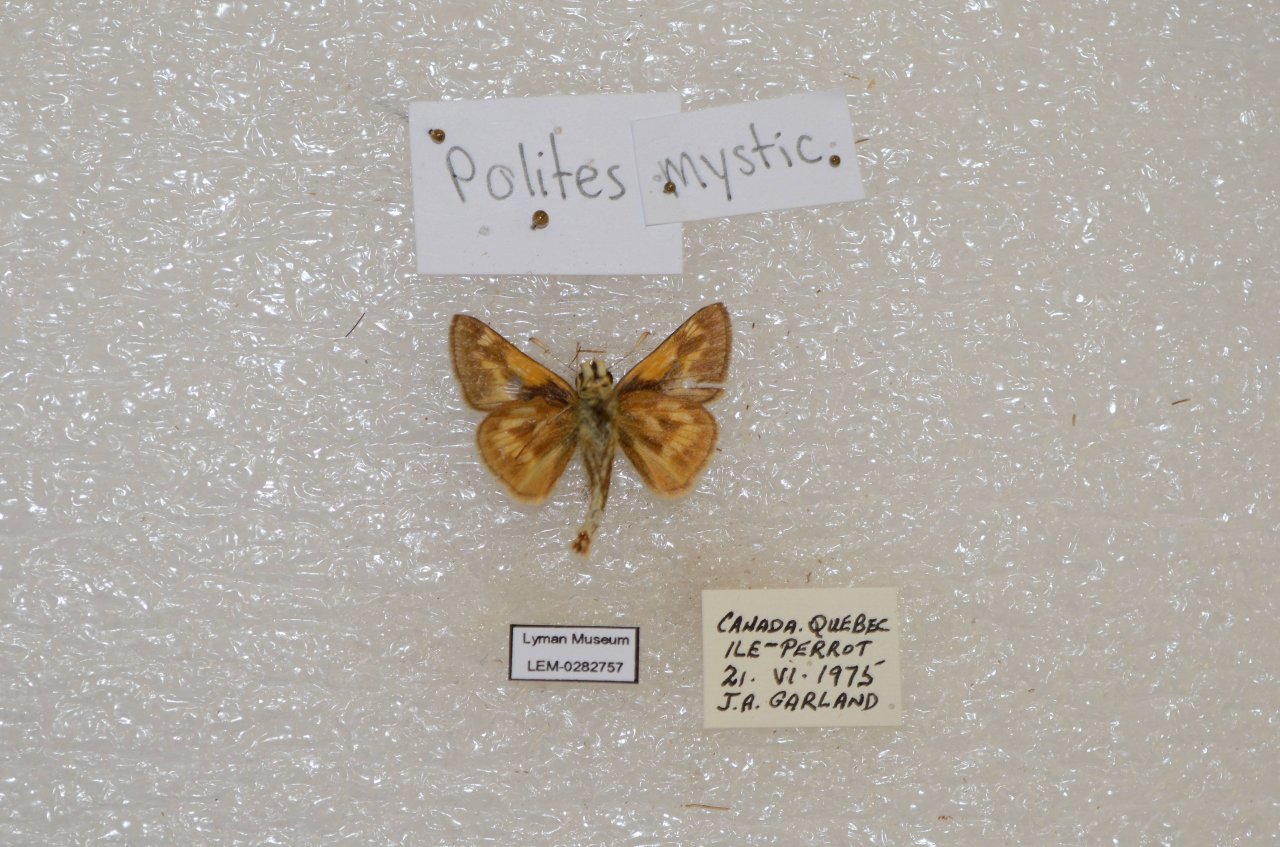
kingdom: Animalia
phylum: Arthropoda
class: Insecta
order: Lepidoptera
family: Hesperiidae
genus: Polites
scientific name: Polites
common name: Long Dash Skipper
